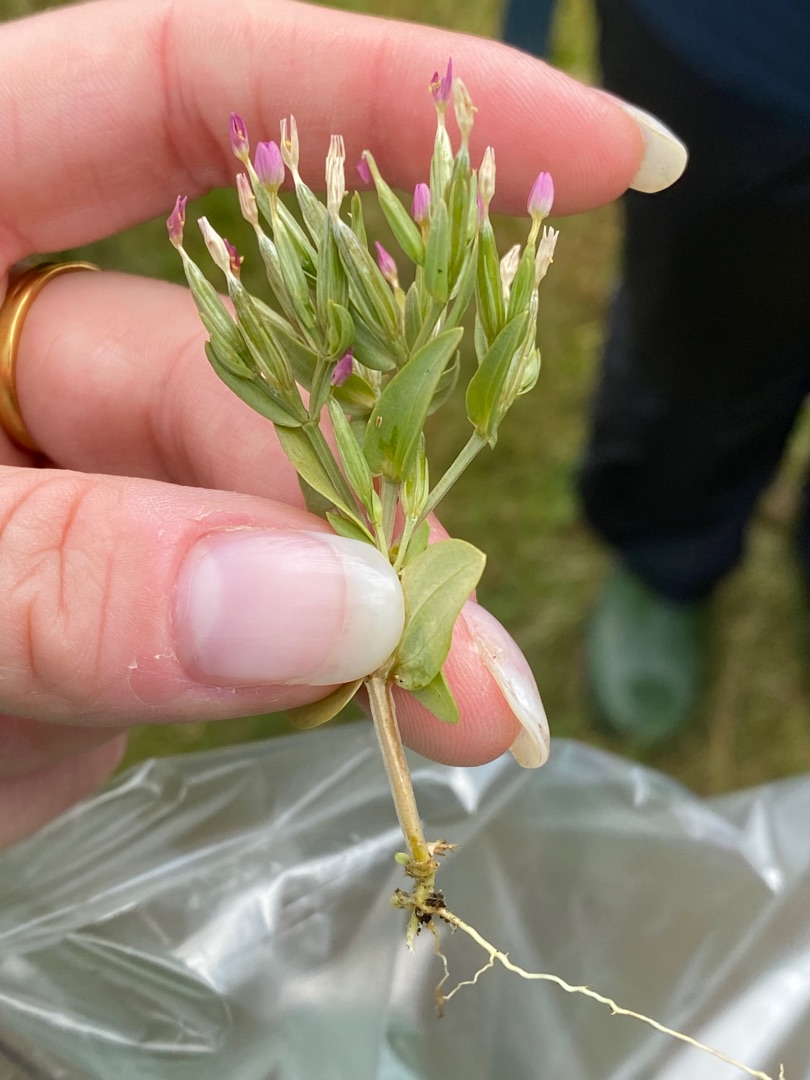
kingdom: Plantae
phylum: Tracheophyta
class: Magnoliopsida
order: Gentianales
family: Gentianaceae
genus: Centaurium
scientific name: Centaurium pulchellum
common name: Liden tusindgylden
